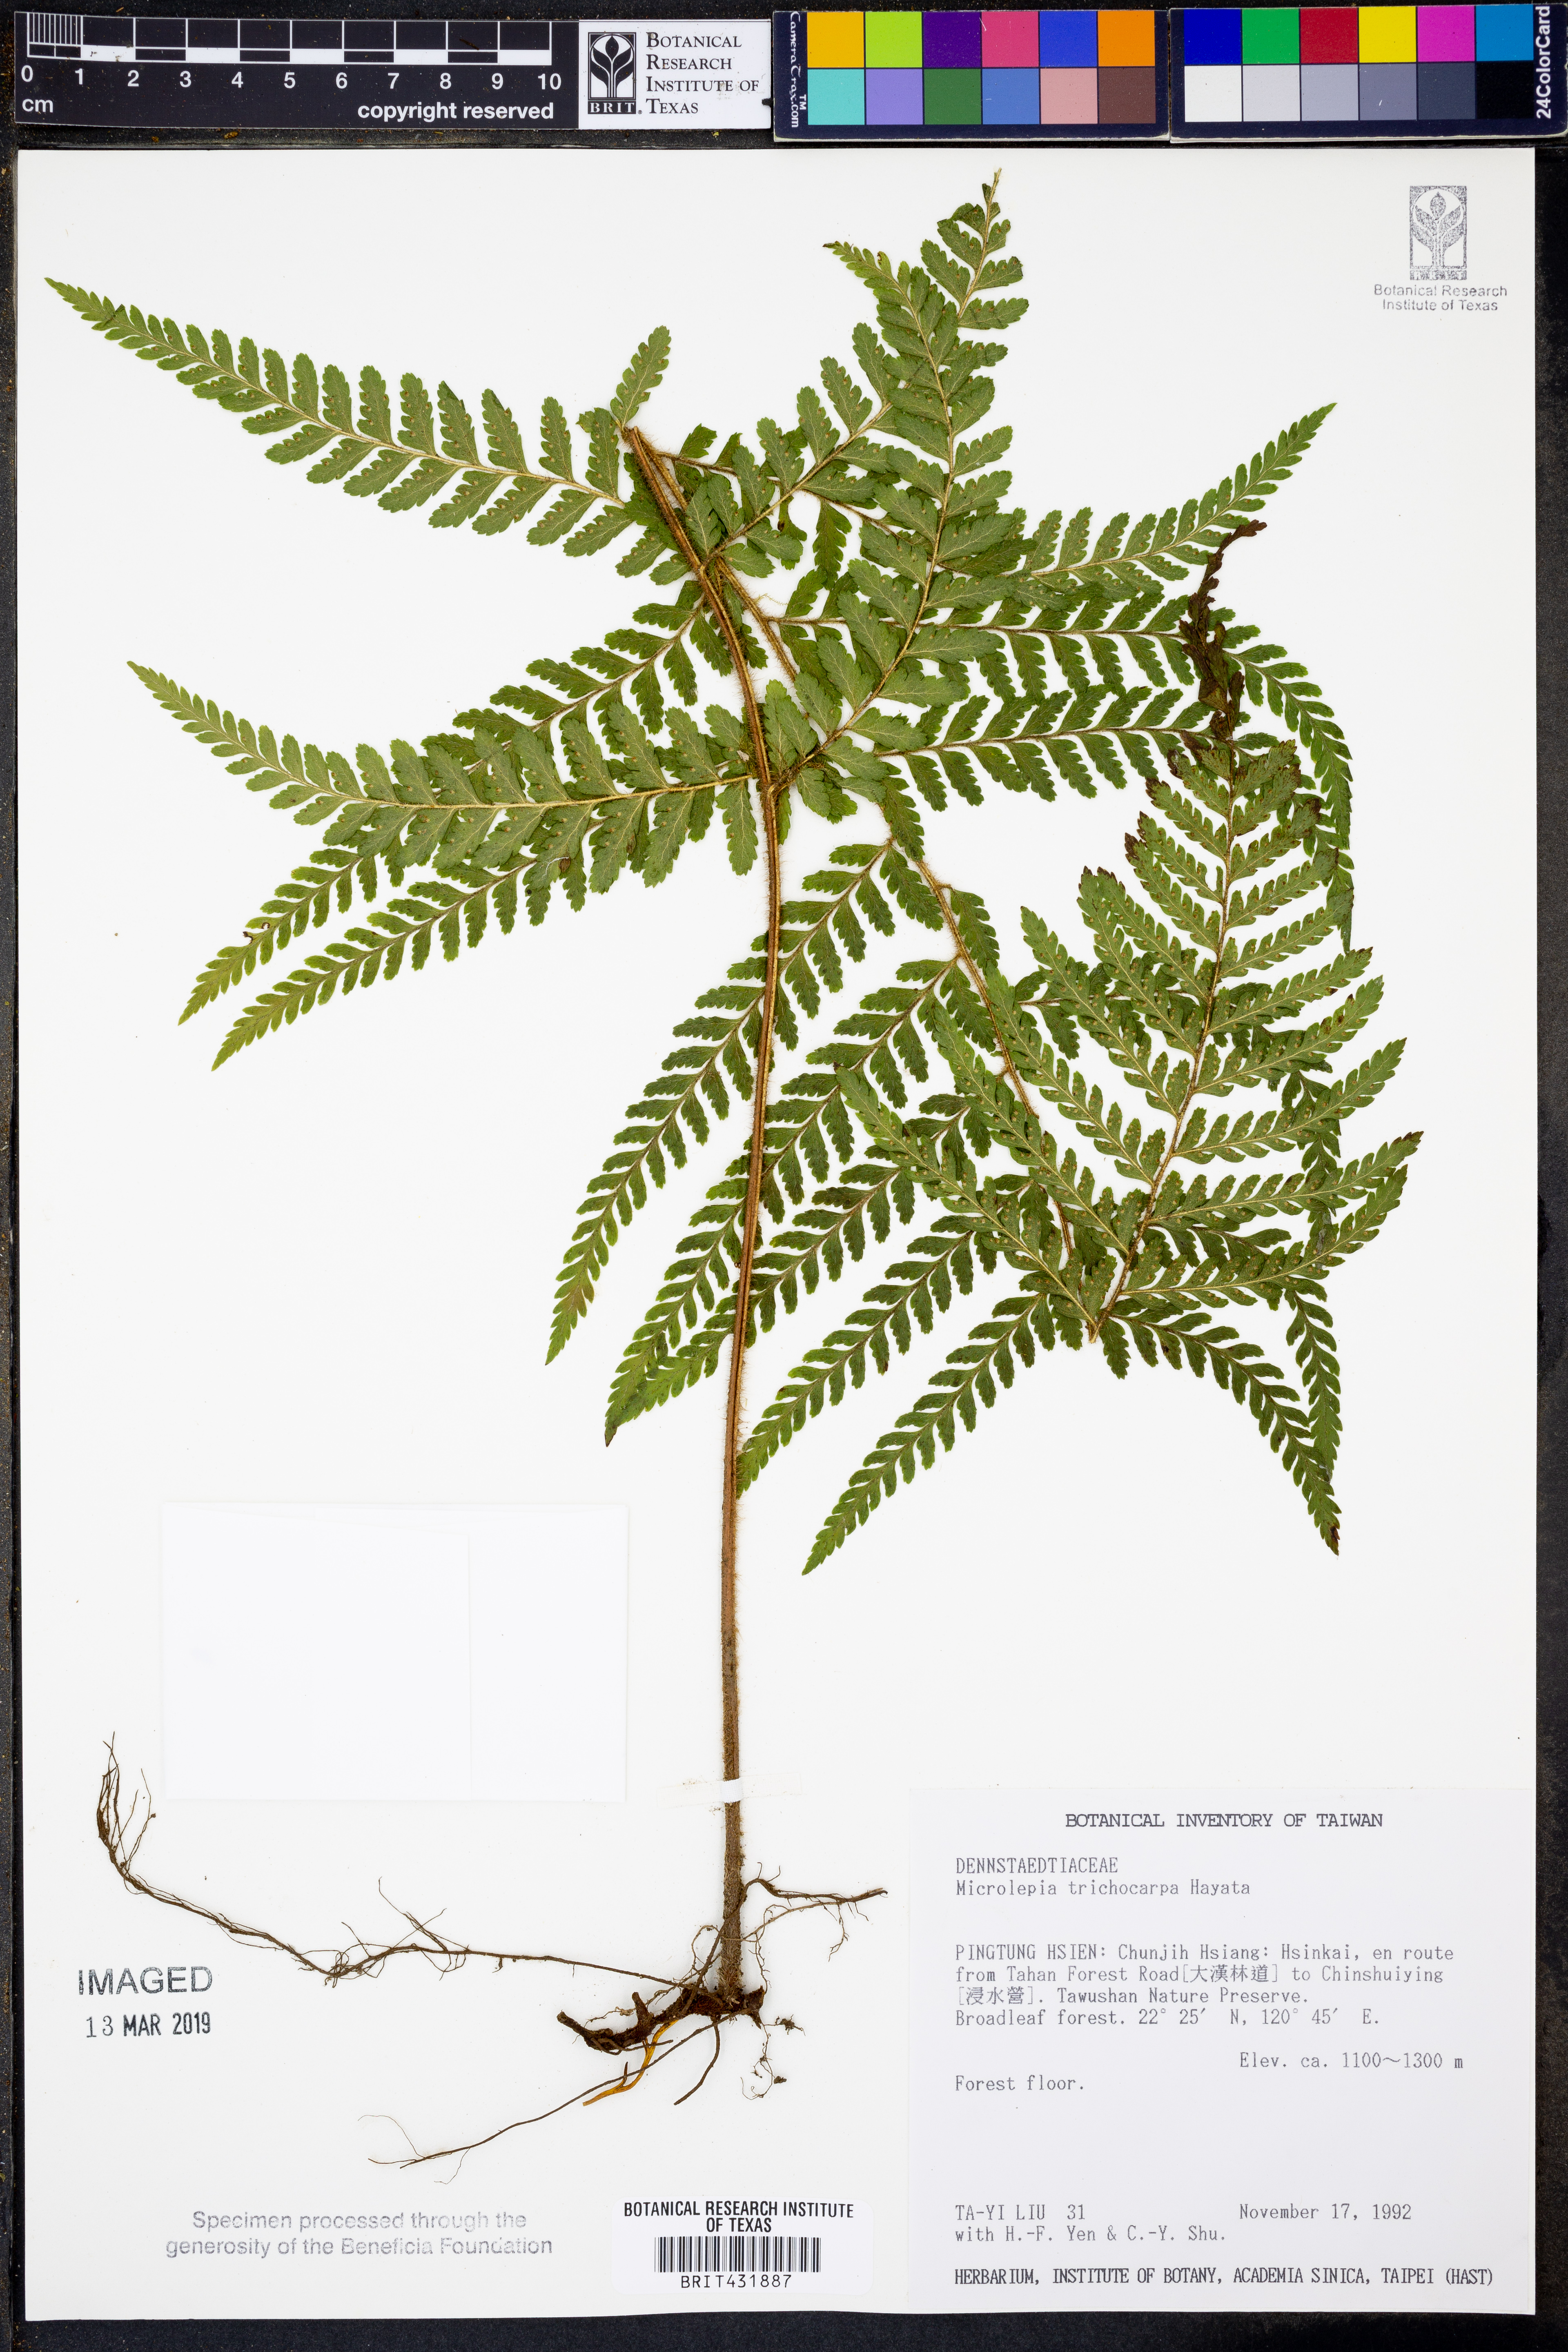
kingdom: Plantae
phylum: Tracheophyta
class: Polypodiopsida
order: Polypodiales
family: Dennstaedtiaceae
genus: Microlepia
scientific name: Microlepia trichocarpa
